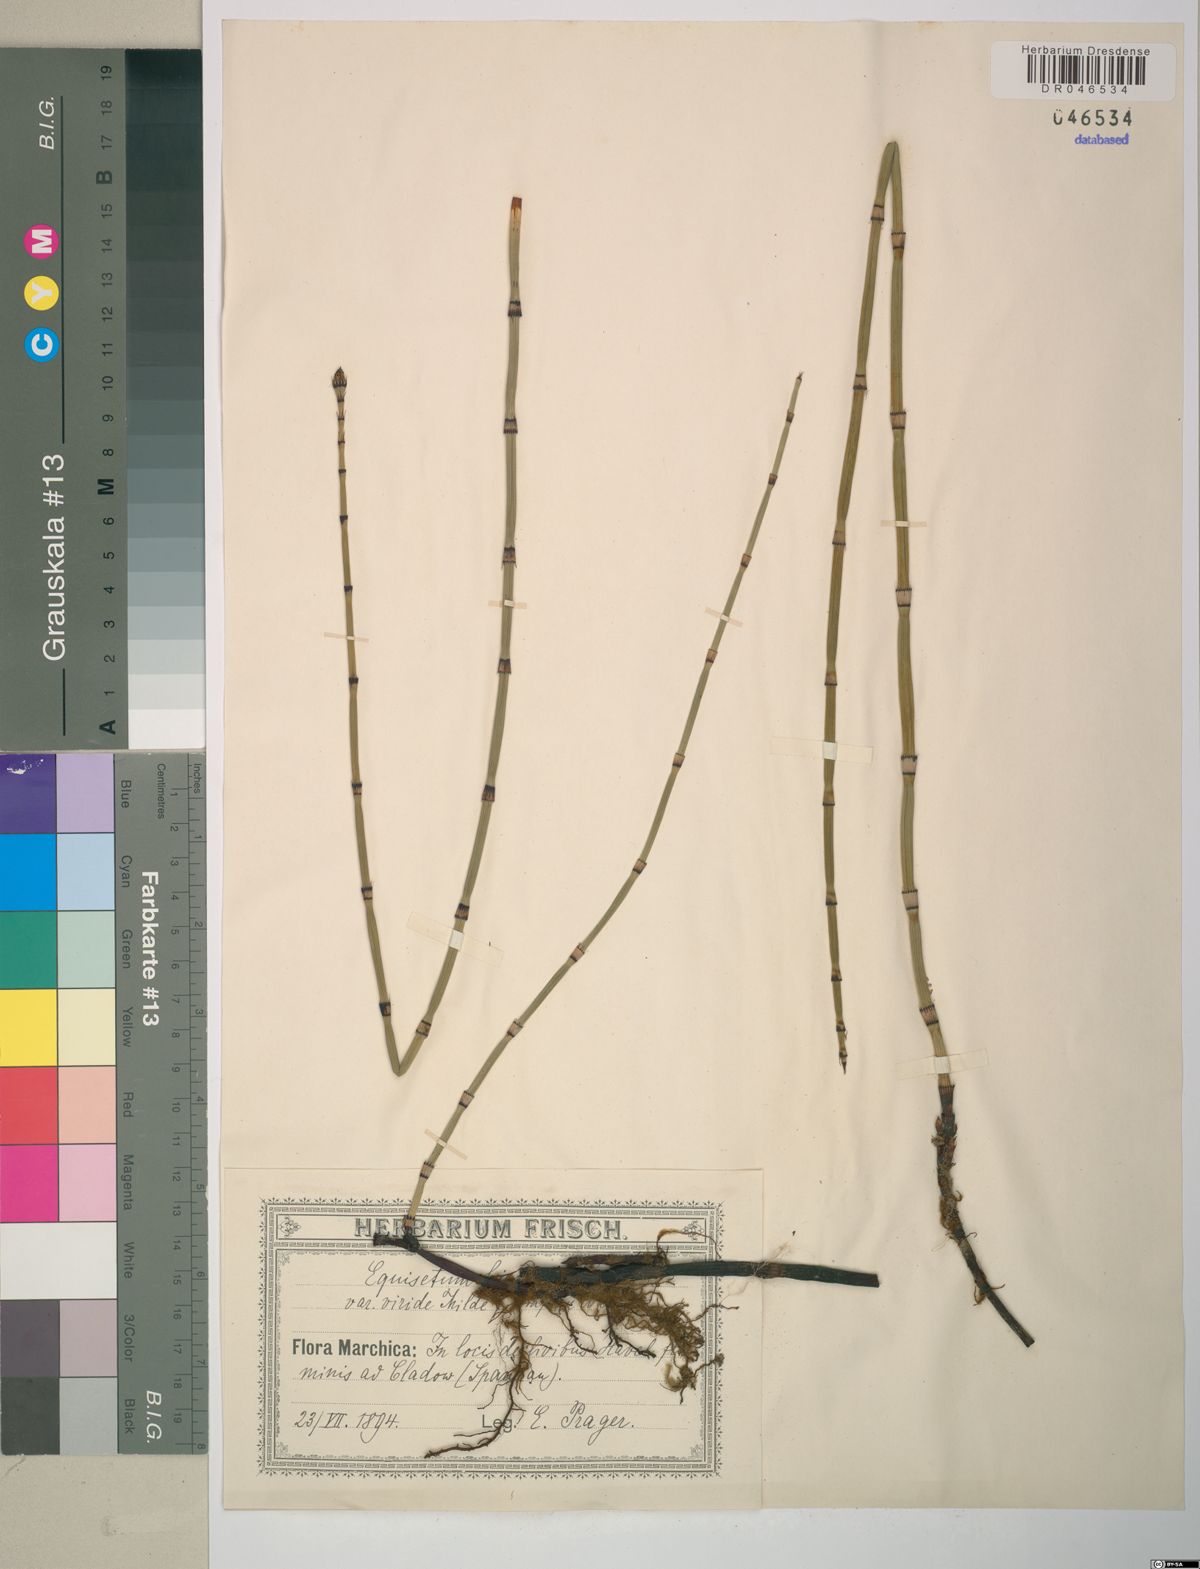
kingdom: Plantae
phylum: Tracheophyta
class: Polypodiopsida
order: Equisetales
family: Equisetaceae
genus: Equisetum
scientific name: Equisetum hyemale
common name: Rough horsetail
